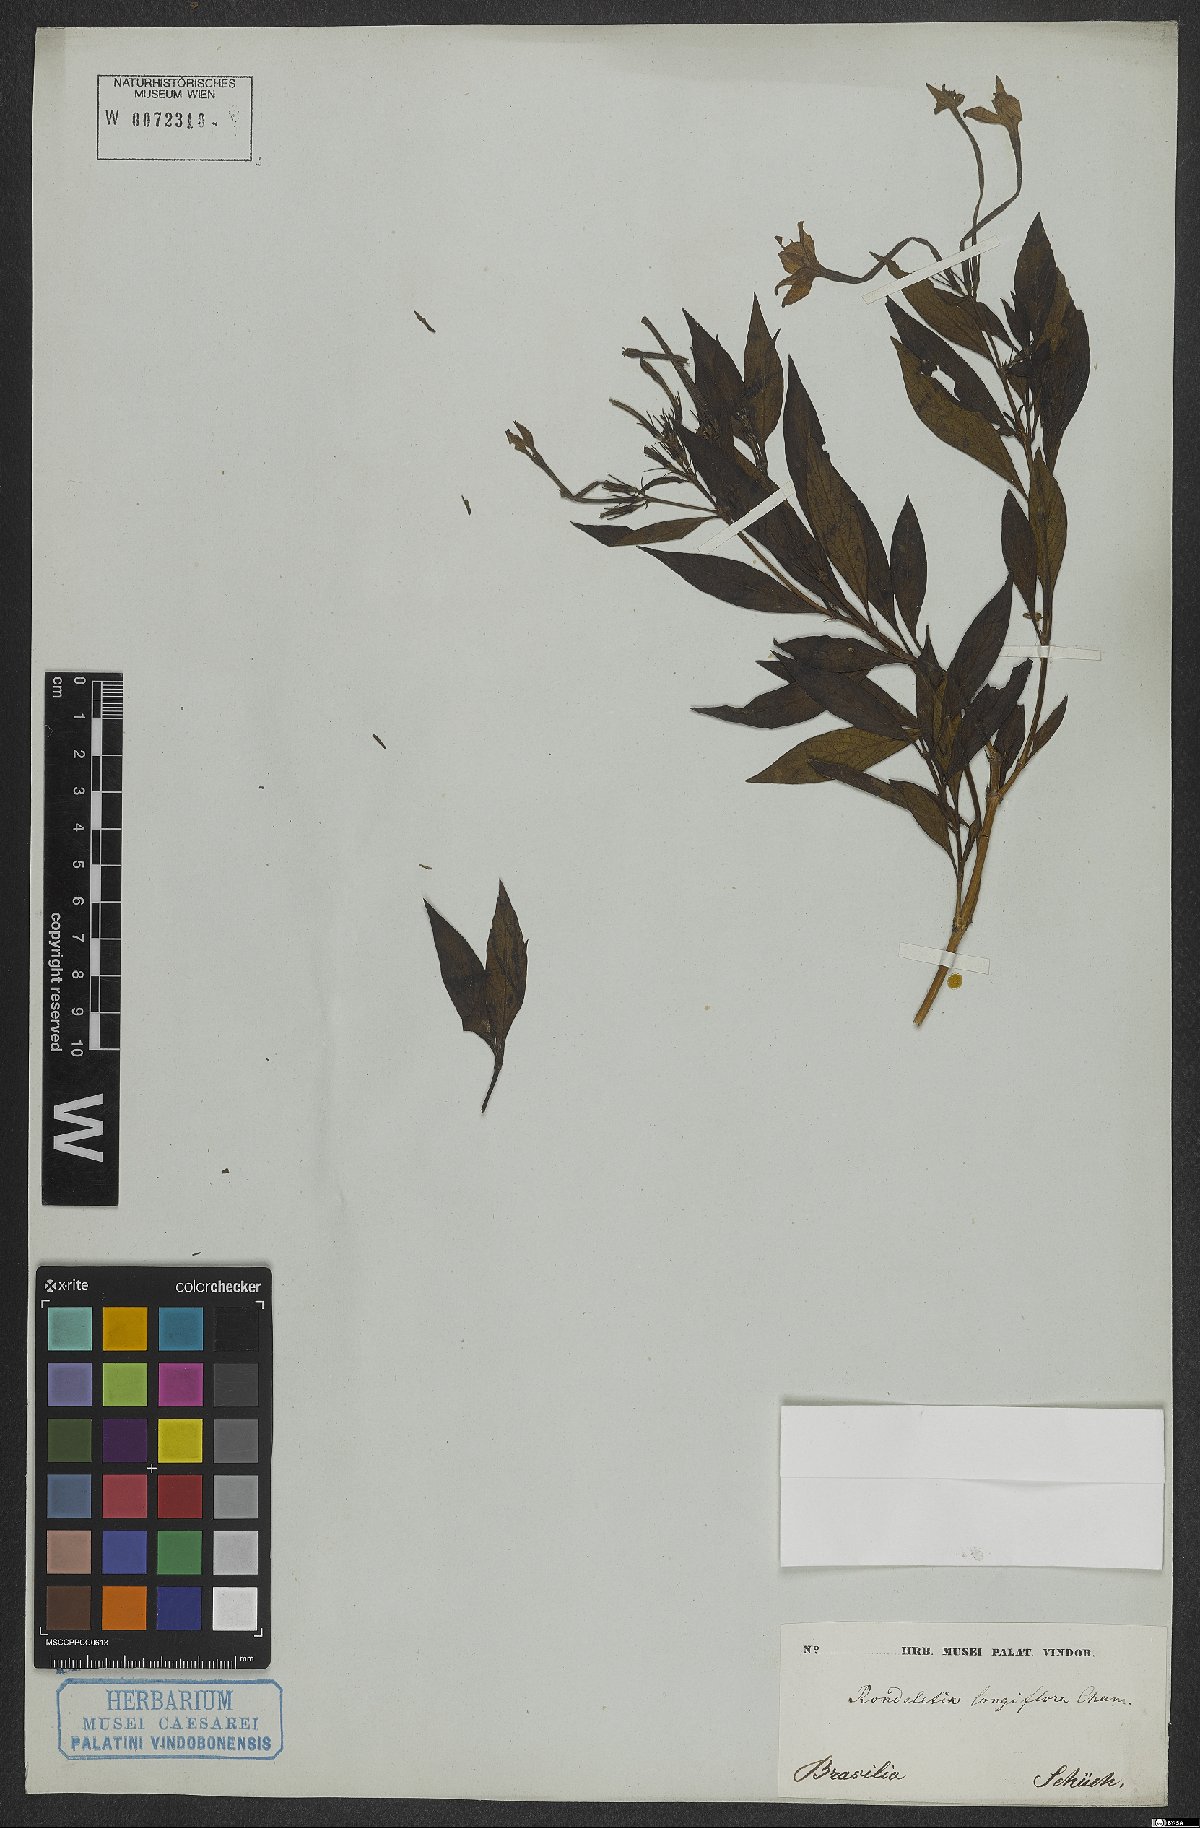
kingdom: Plantae
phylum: Tracheophyta
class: Magnoliopsida
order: Gentianales
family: Rubiaceae
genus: Hindsia
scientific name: Hindsia longiflora
